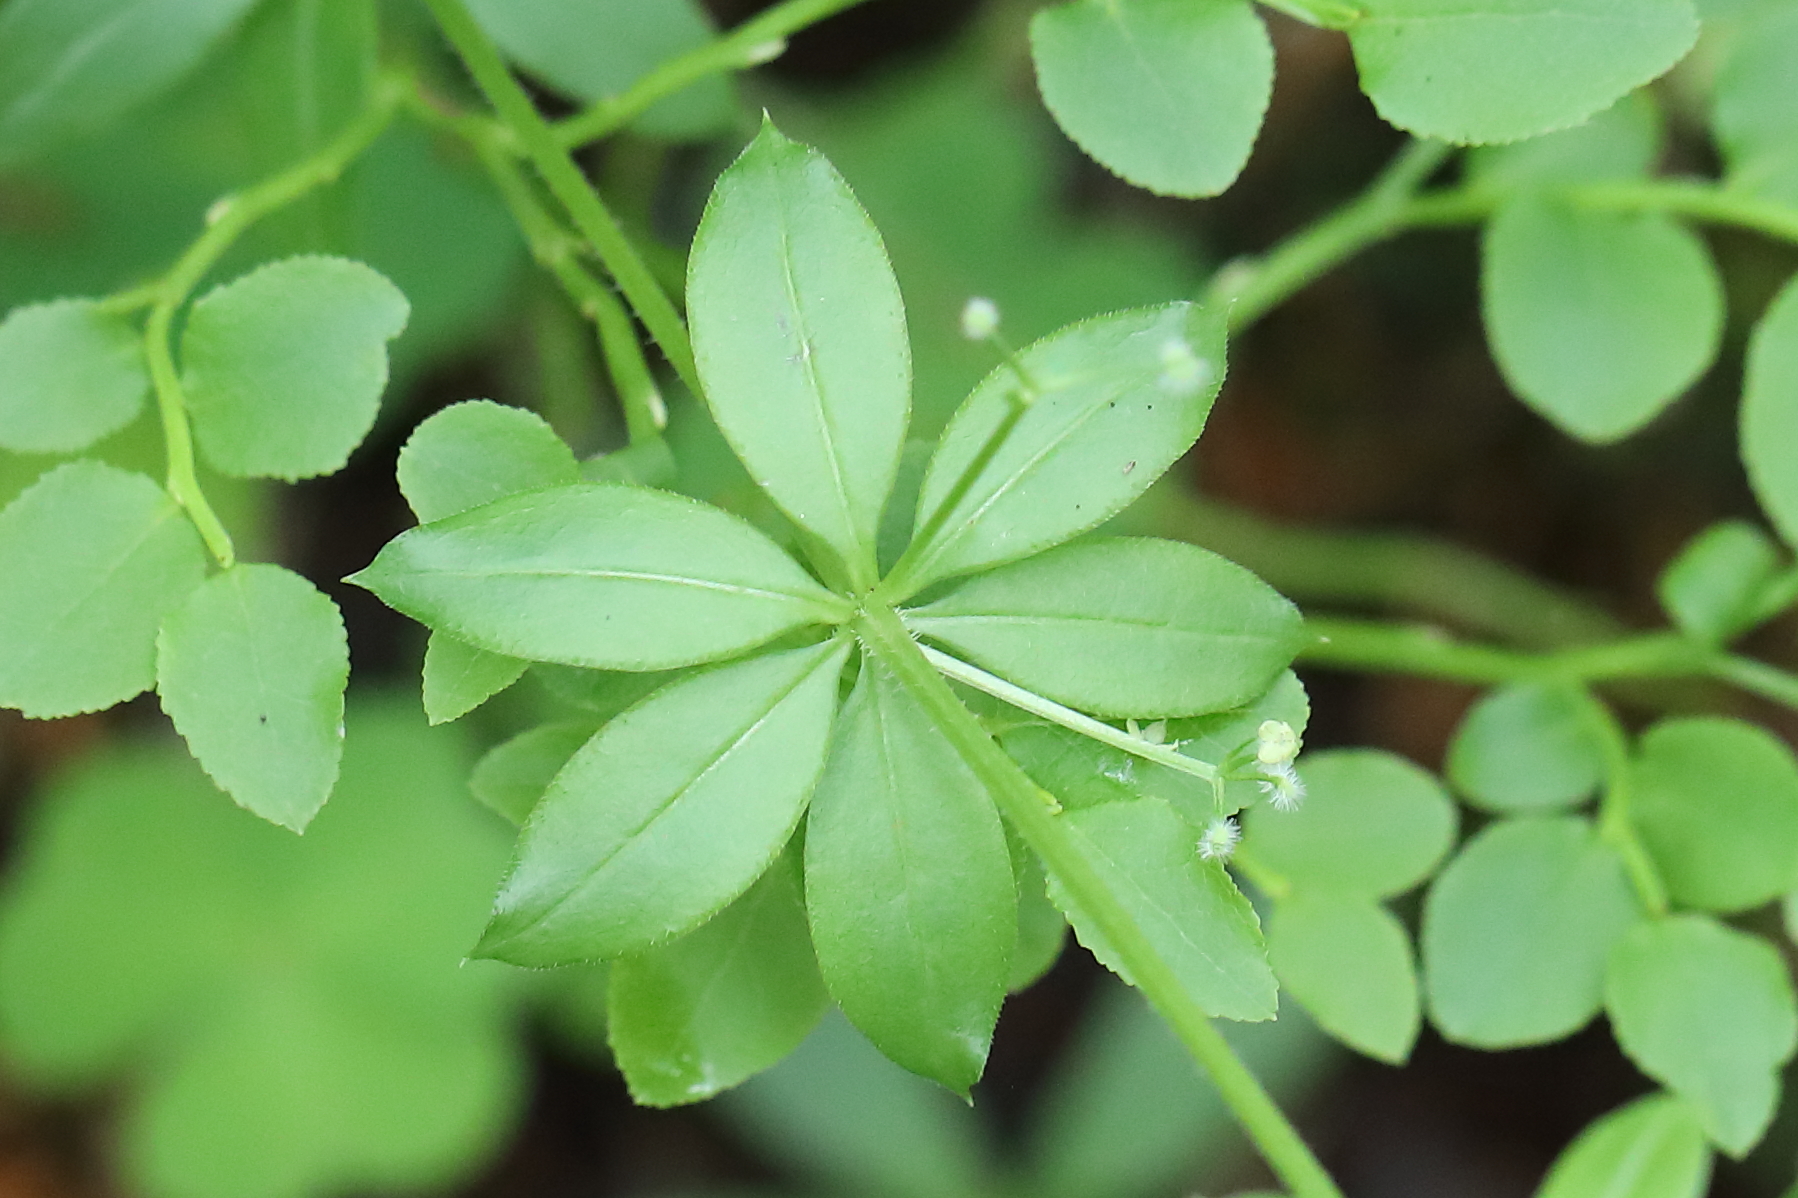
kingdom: Plantae
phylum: Tracheophyta
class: Magnoliopsida
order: Gentianales
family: Rubiaceae
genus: Galium
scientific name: Galium triflorum
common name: Fragrant bedstraw
